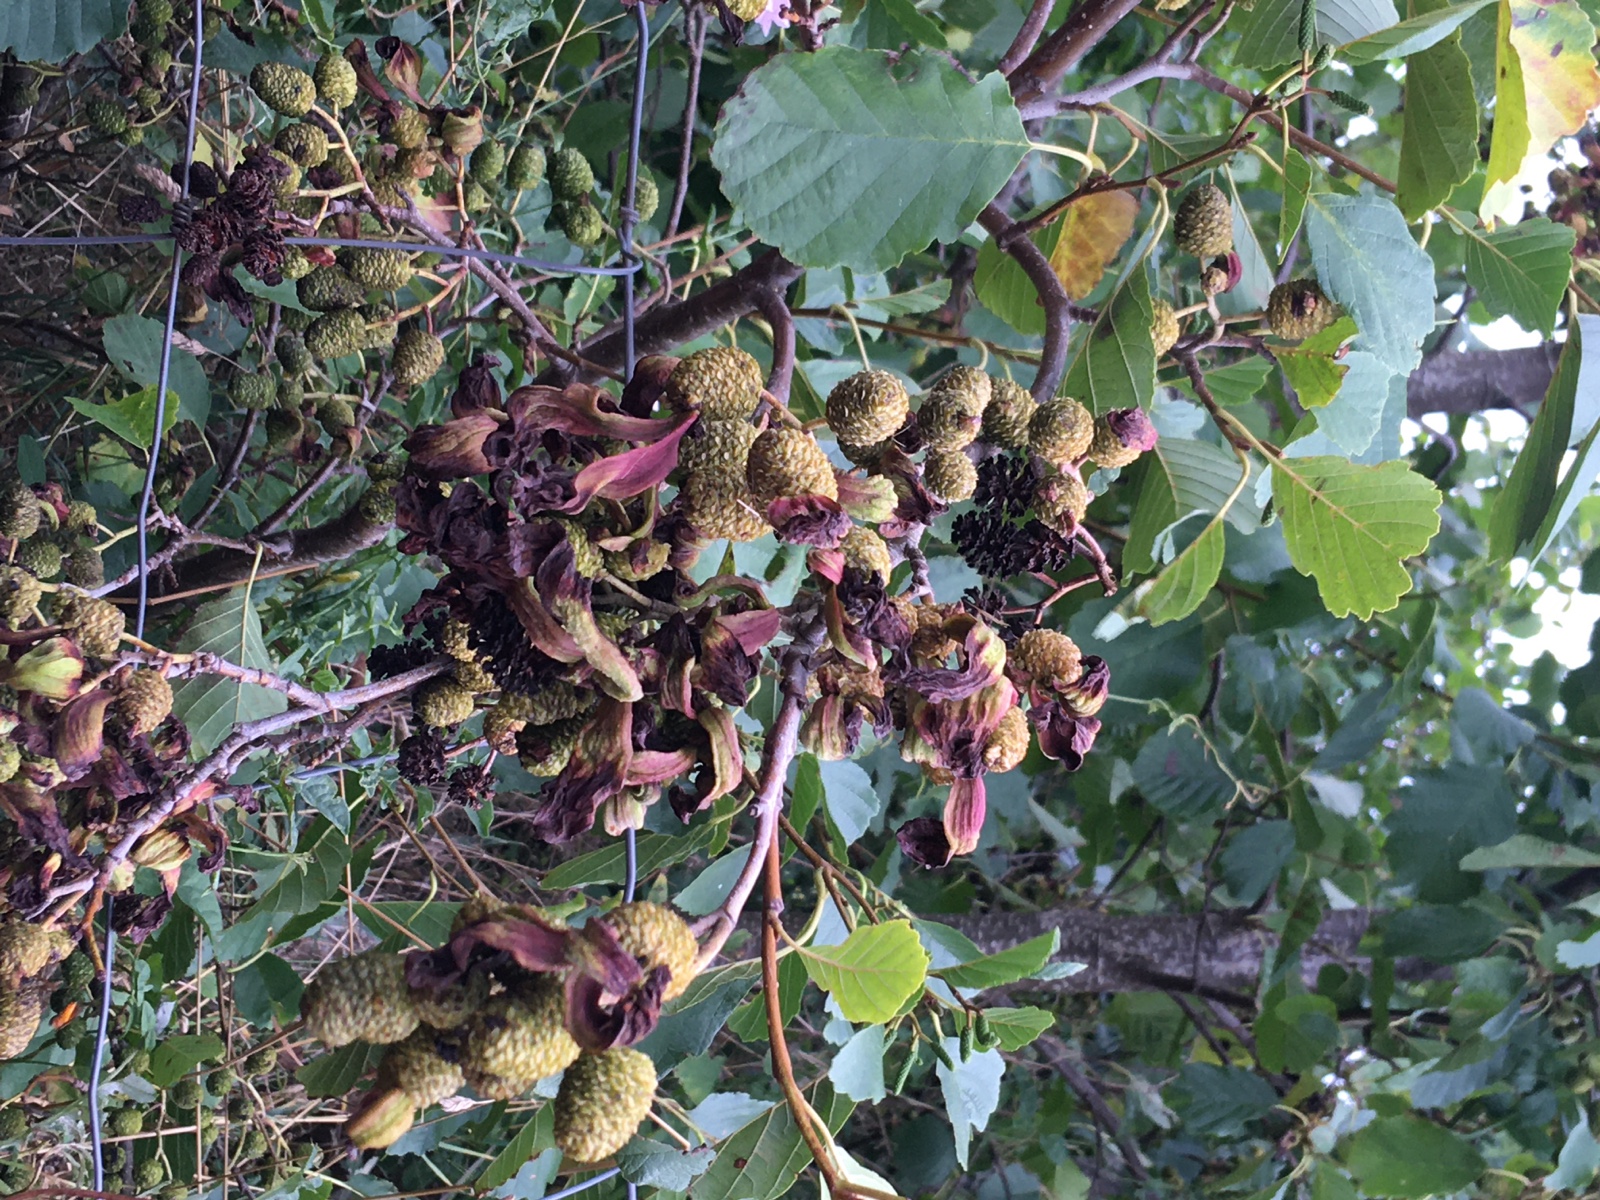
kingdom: Fungi
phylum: Ascomycota
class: Taphrinomycetes
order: Taphrinales
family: Taphrinaceae
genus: Taphrina
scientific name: Taphrina alni
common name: Alder tongue
